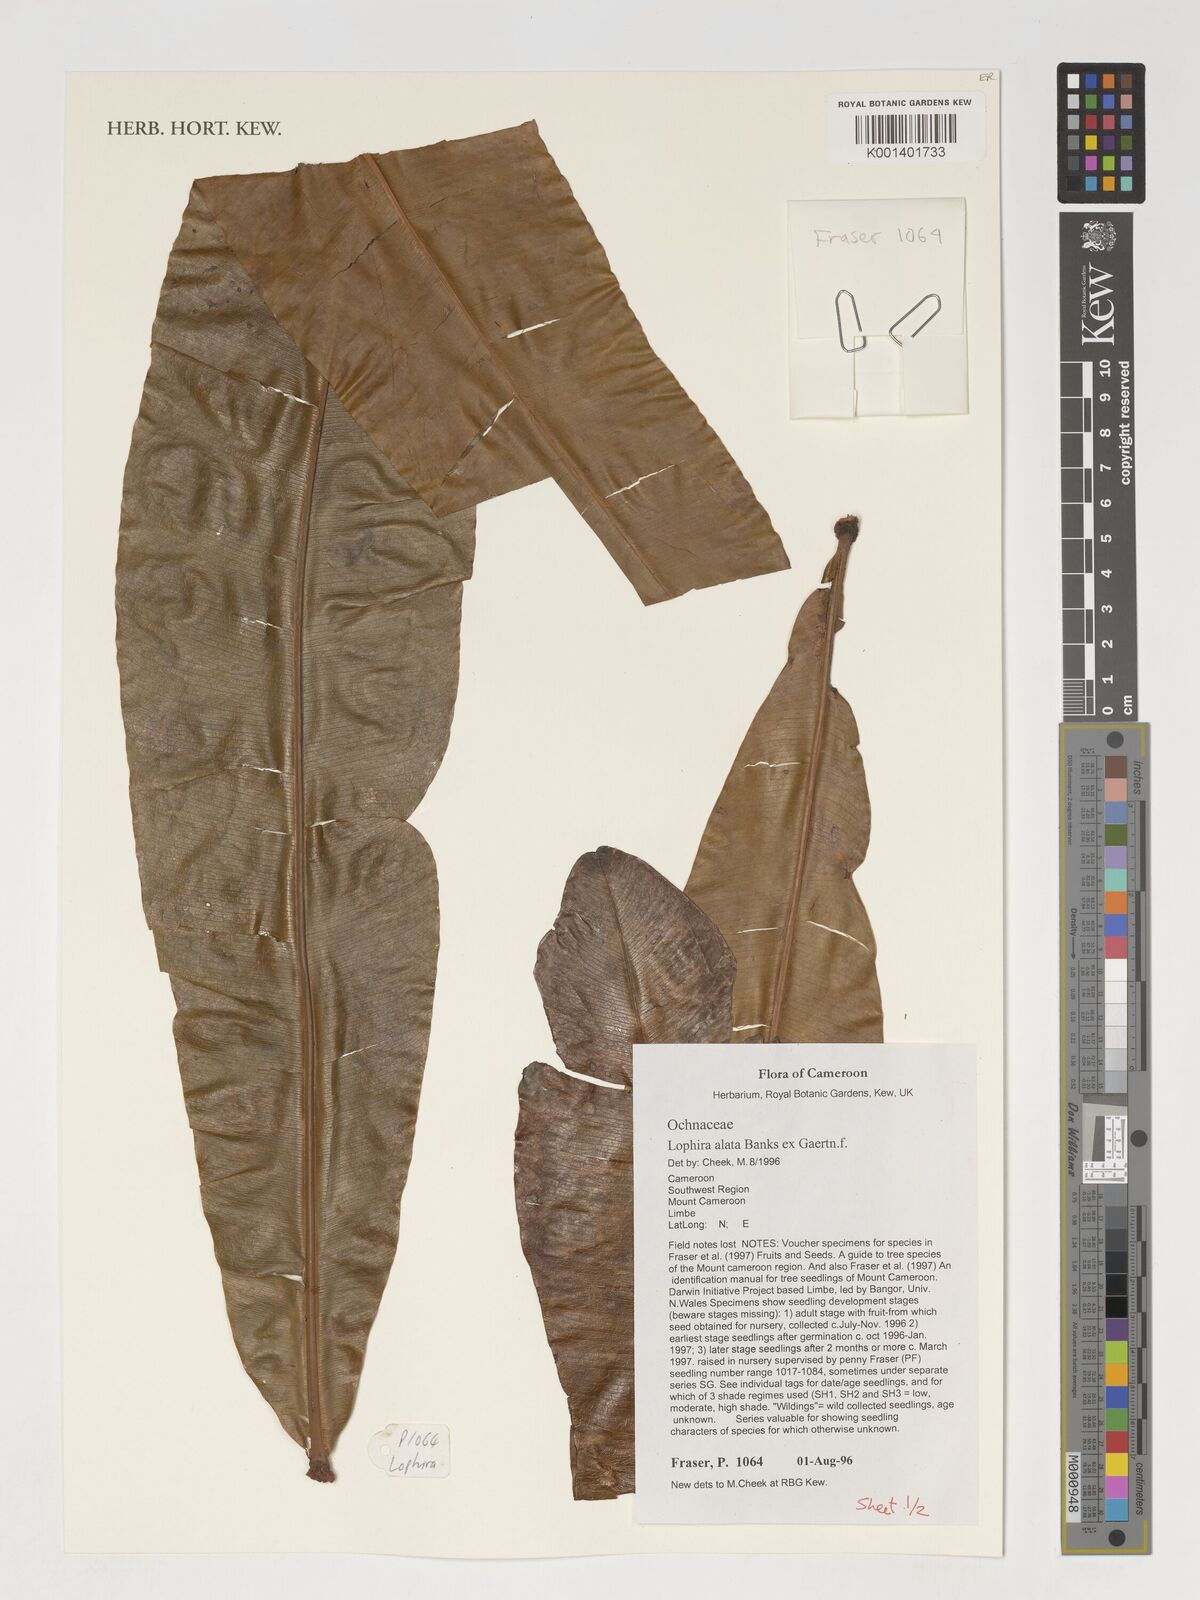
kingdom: Plantae
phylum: Tracheophyta
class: Magnoliopsida
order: Malpighiales
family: Ochnaceae
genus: Lophira
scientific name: Lophira alata
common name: Azobe
